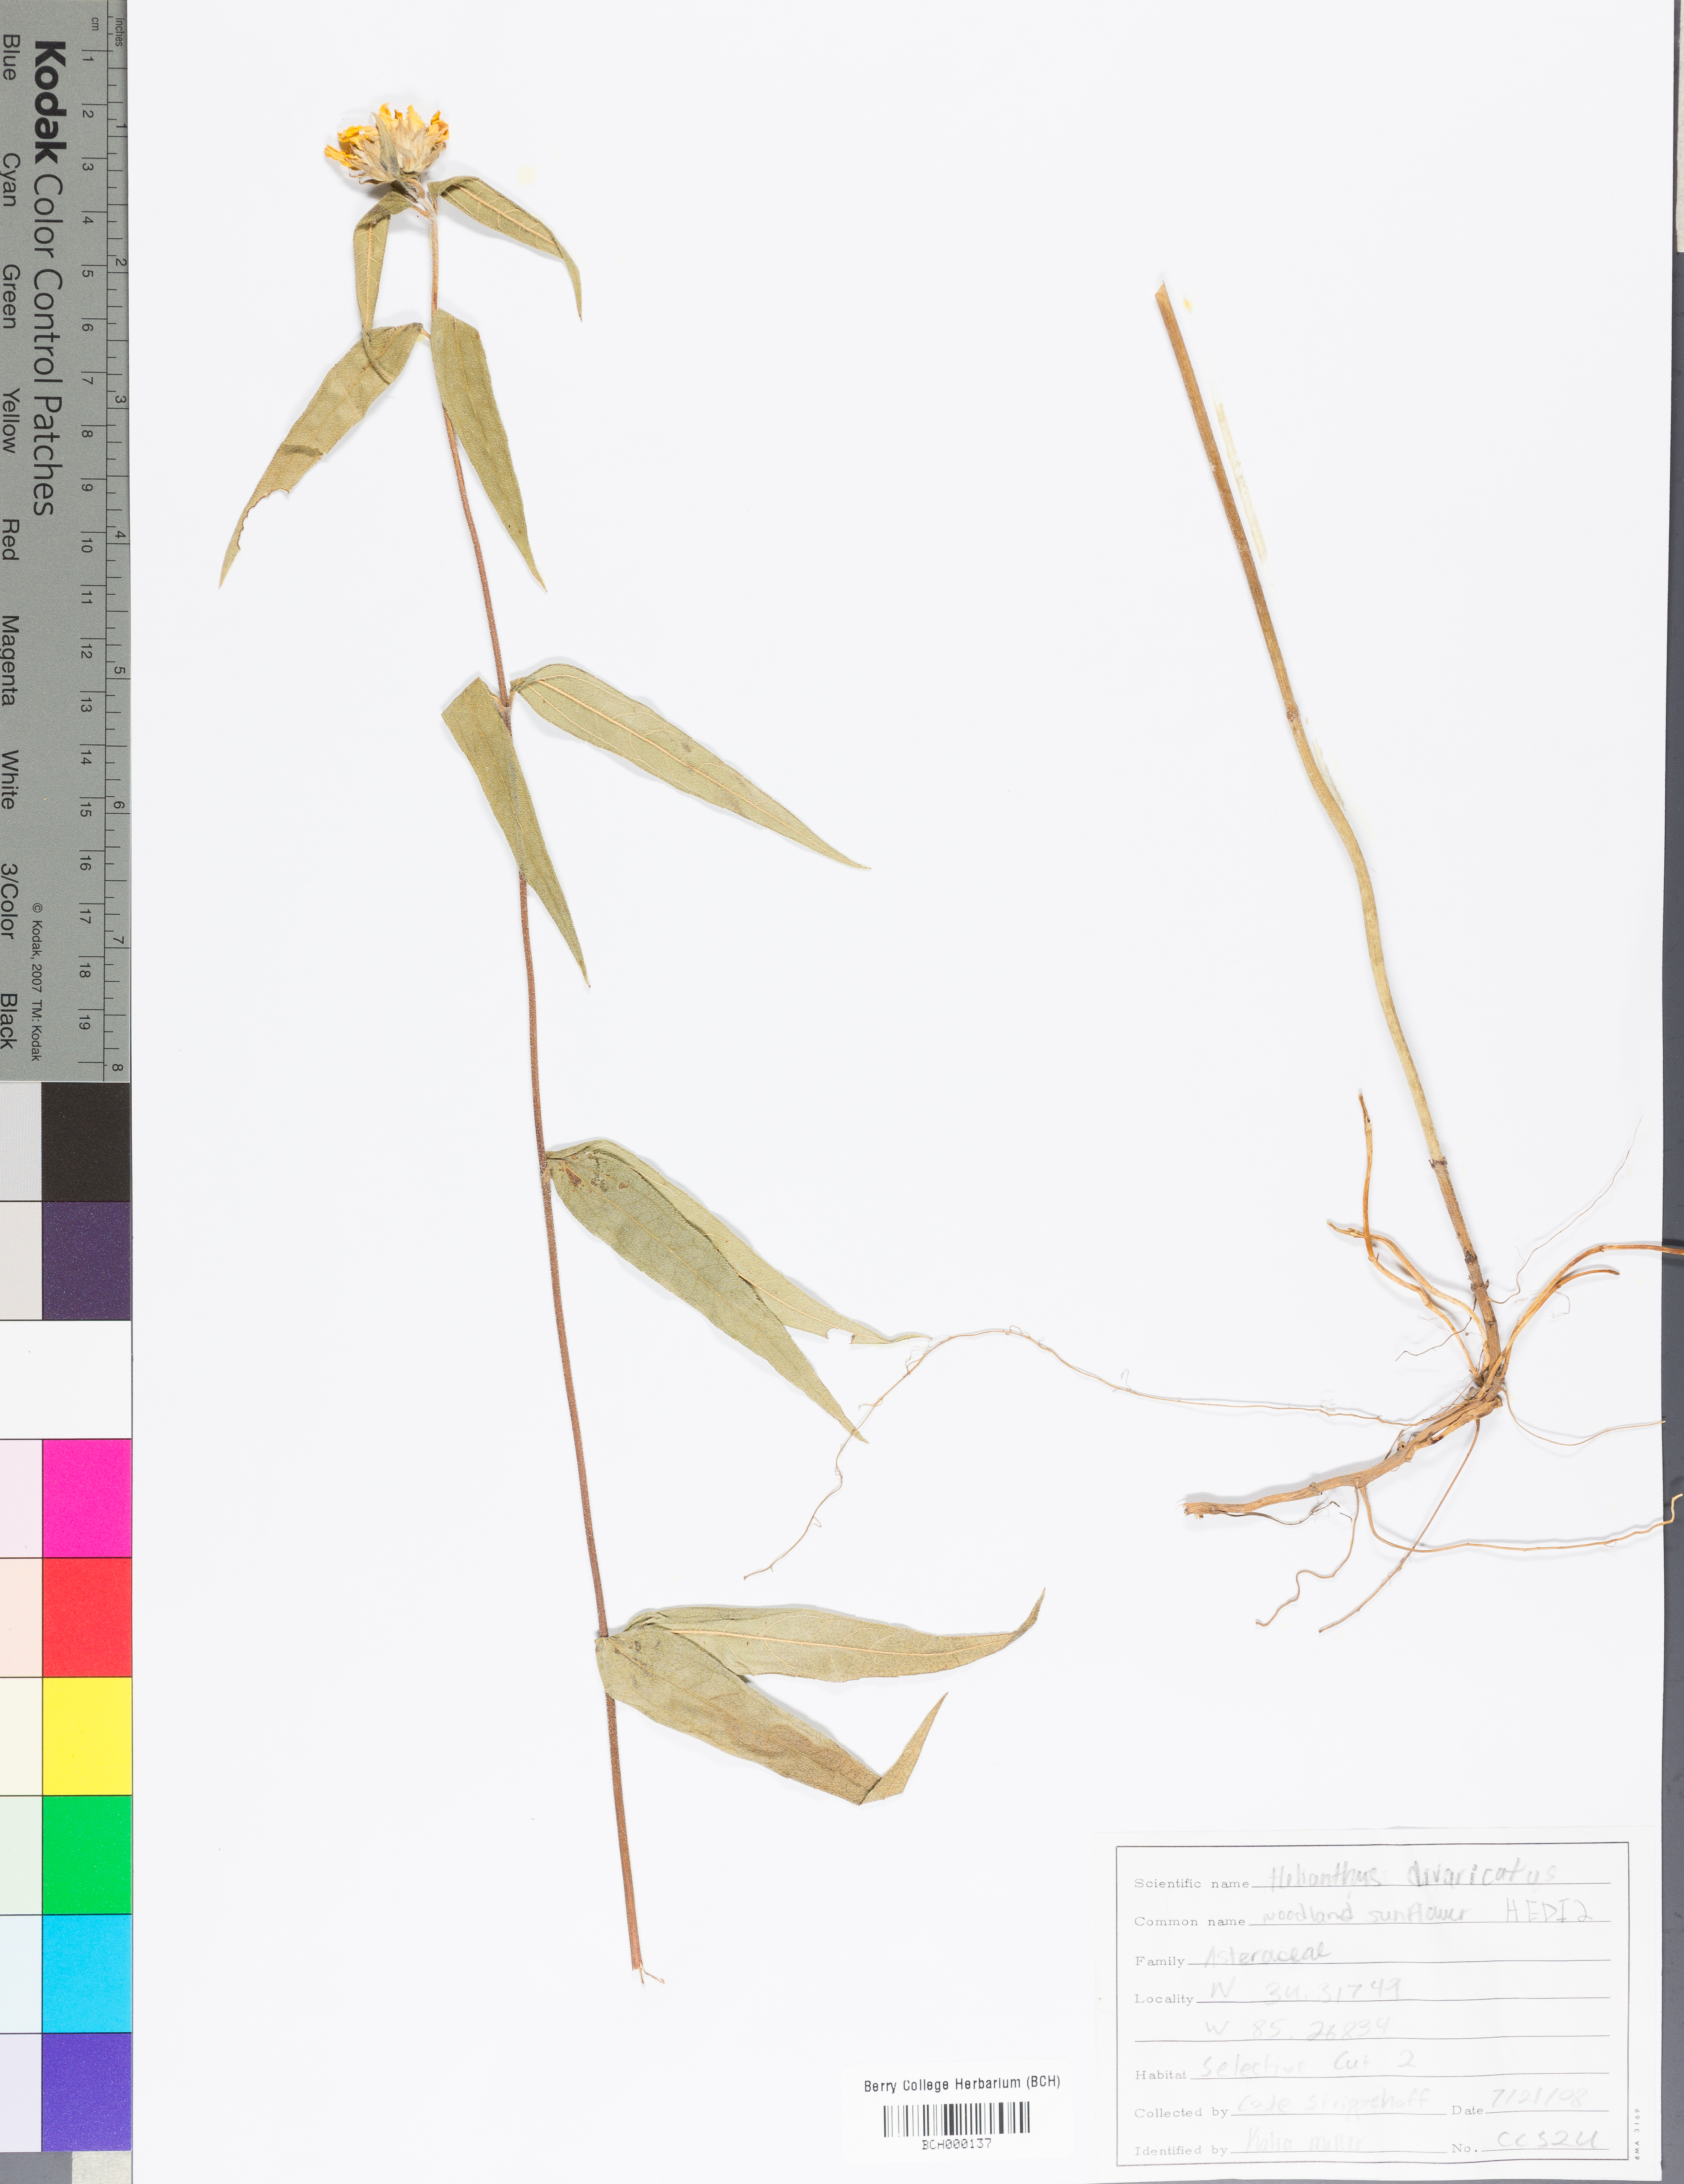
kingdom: Plantae
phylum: Tracheophyta
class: Magnoliopsida
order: Asterales
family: Asteraceae
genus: Helianthus
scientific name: Helianthus divaricatus
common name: Divergent sunflower
